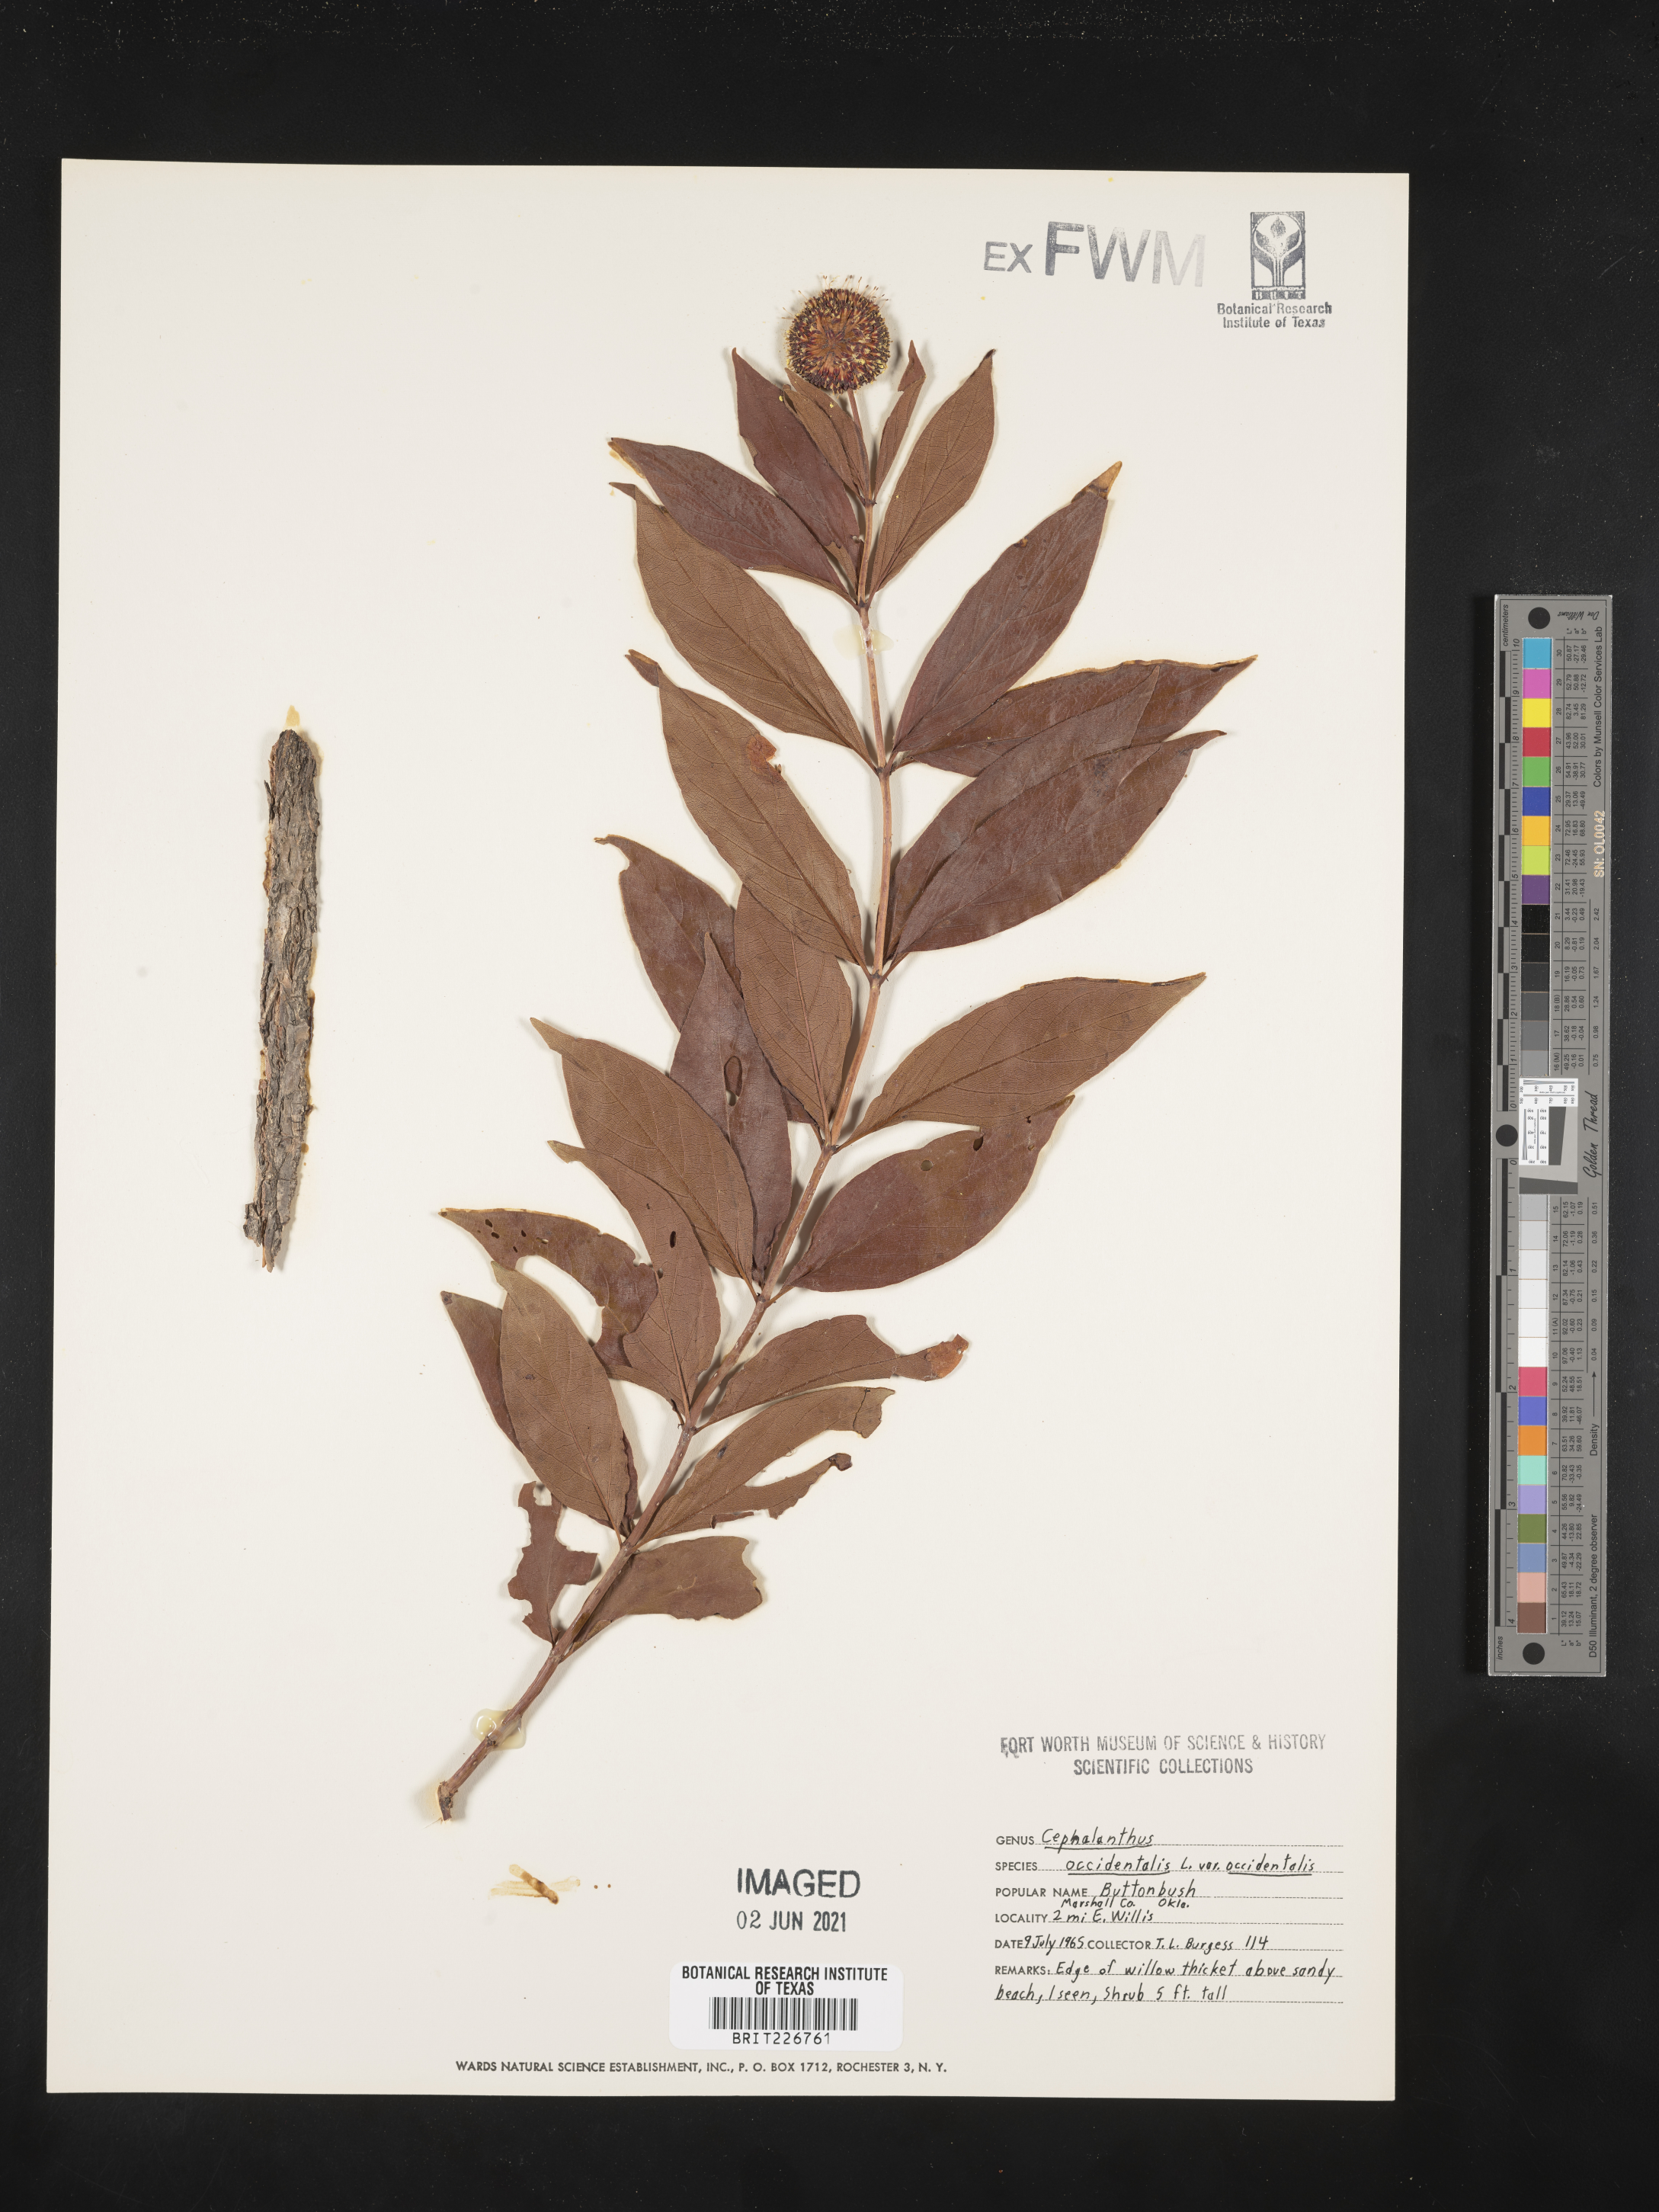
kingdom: Plantae
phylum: Tracheophyta
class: Magnoliopsida
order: Gentianales
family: Rubiaceae
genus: Cephalanthus
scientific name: Cephalanthus occidentalis
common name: Button-willow
